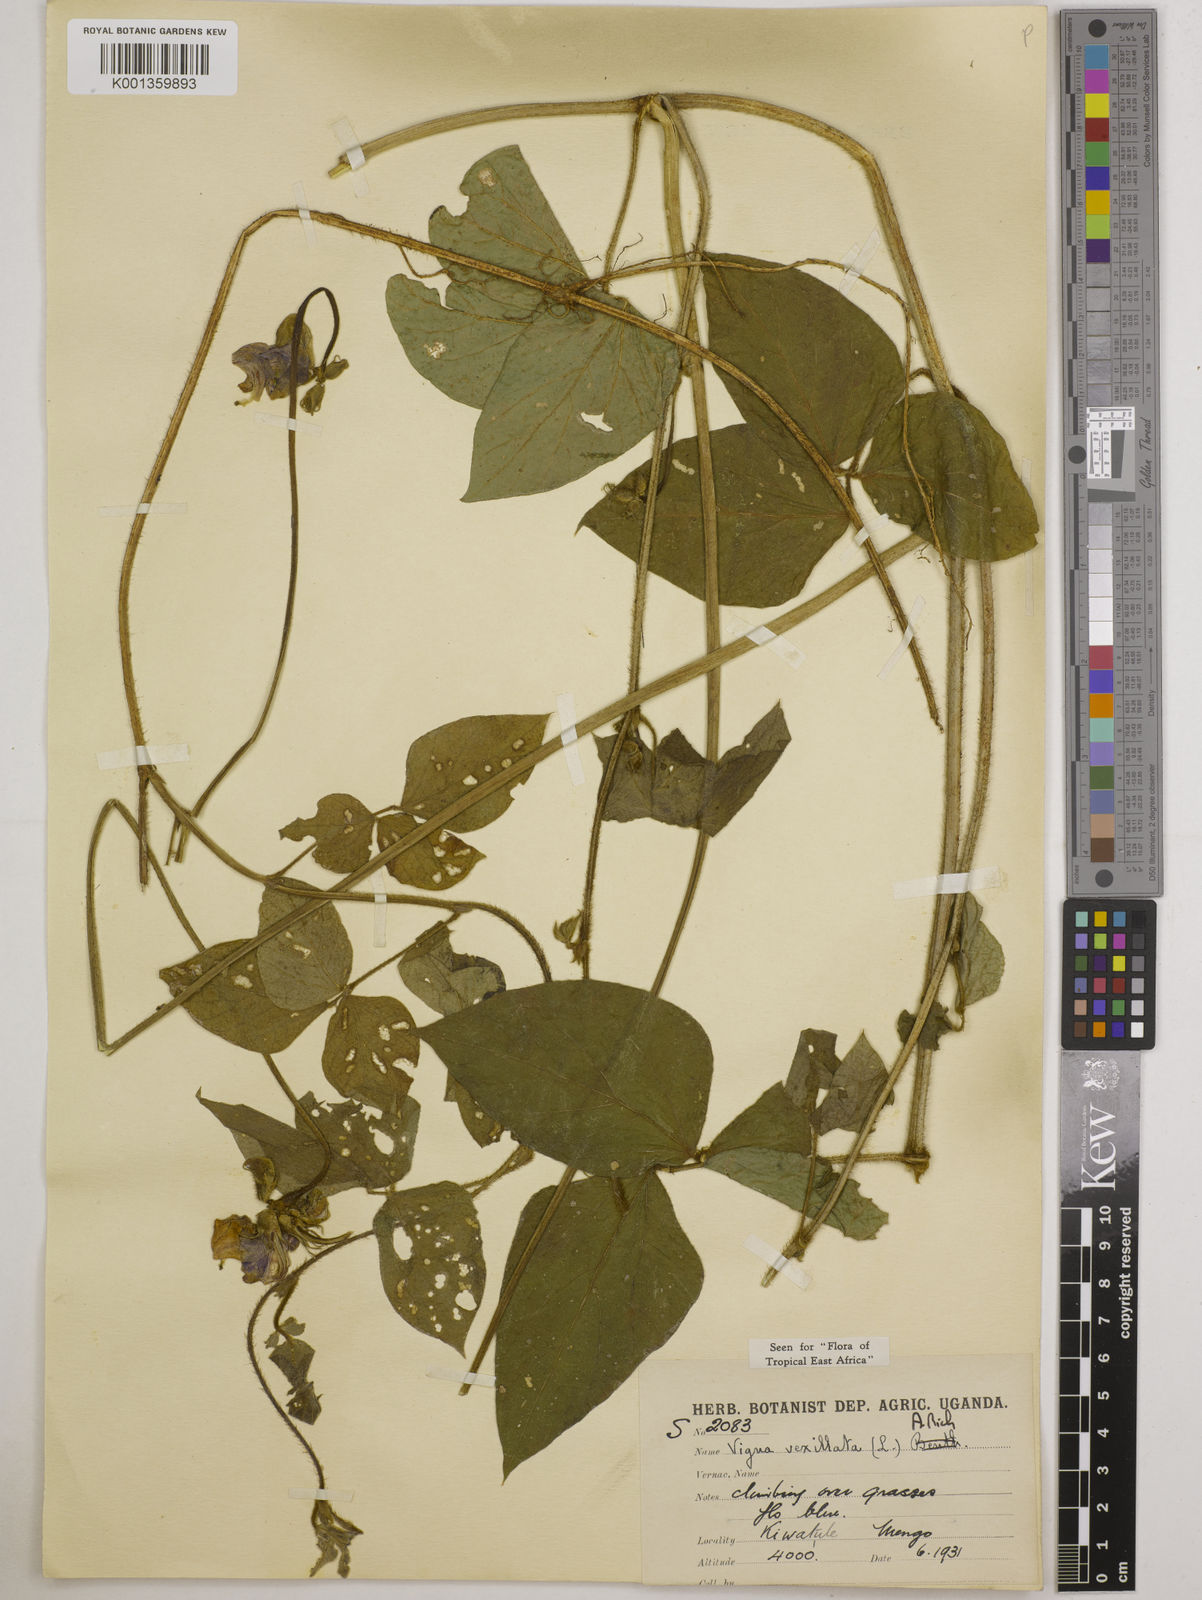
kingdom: Plantae
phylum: Tracheophyta
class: Magnoliopsida
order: Fabales
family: Fabaceae
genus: Vigna
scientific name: Vigna vexillata
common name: Zombi pea
